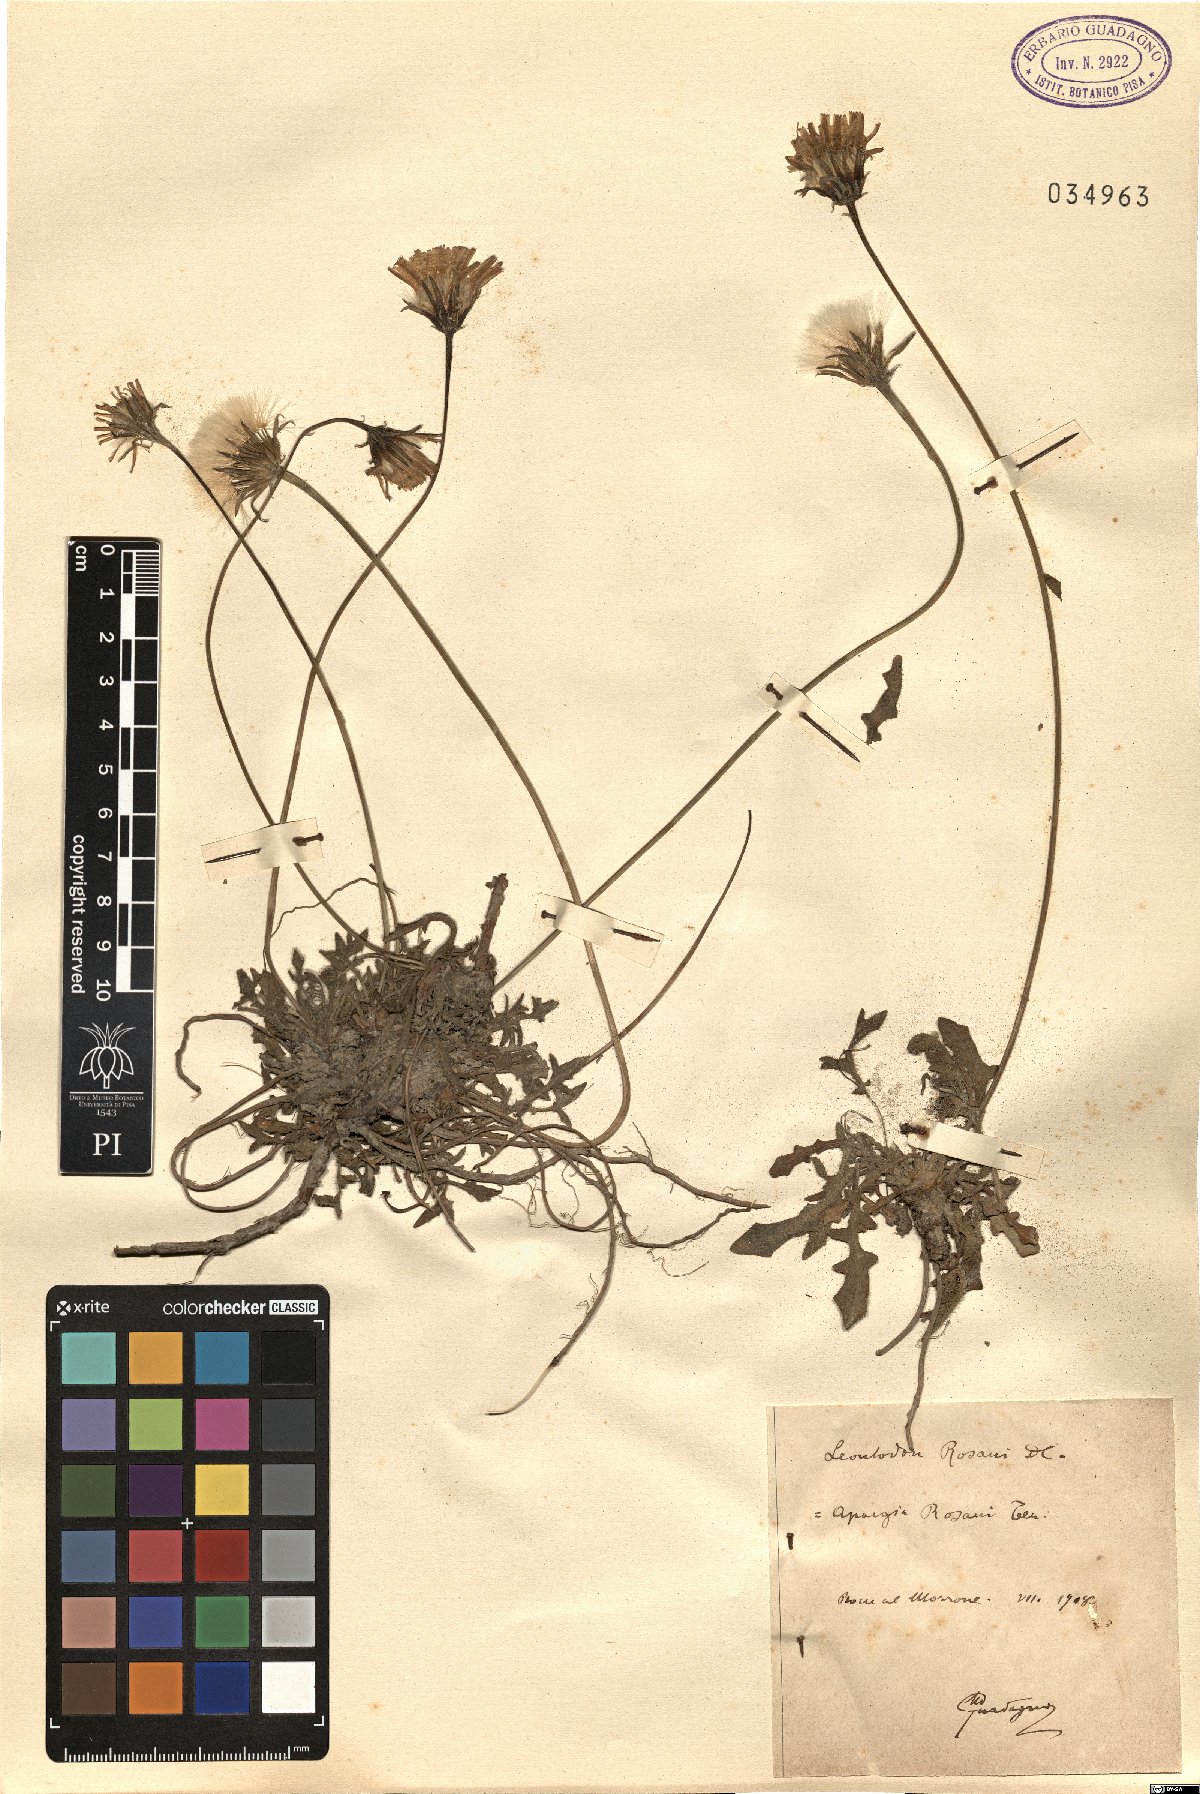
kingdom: Plantae
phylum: Tracheophyta
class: Magnoliopsida
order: Asterales
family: Asteraceae
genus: Leontodon
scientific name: Leontodon rosanoi
